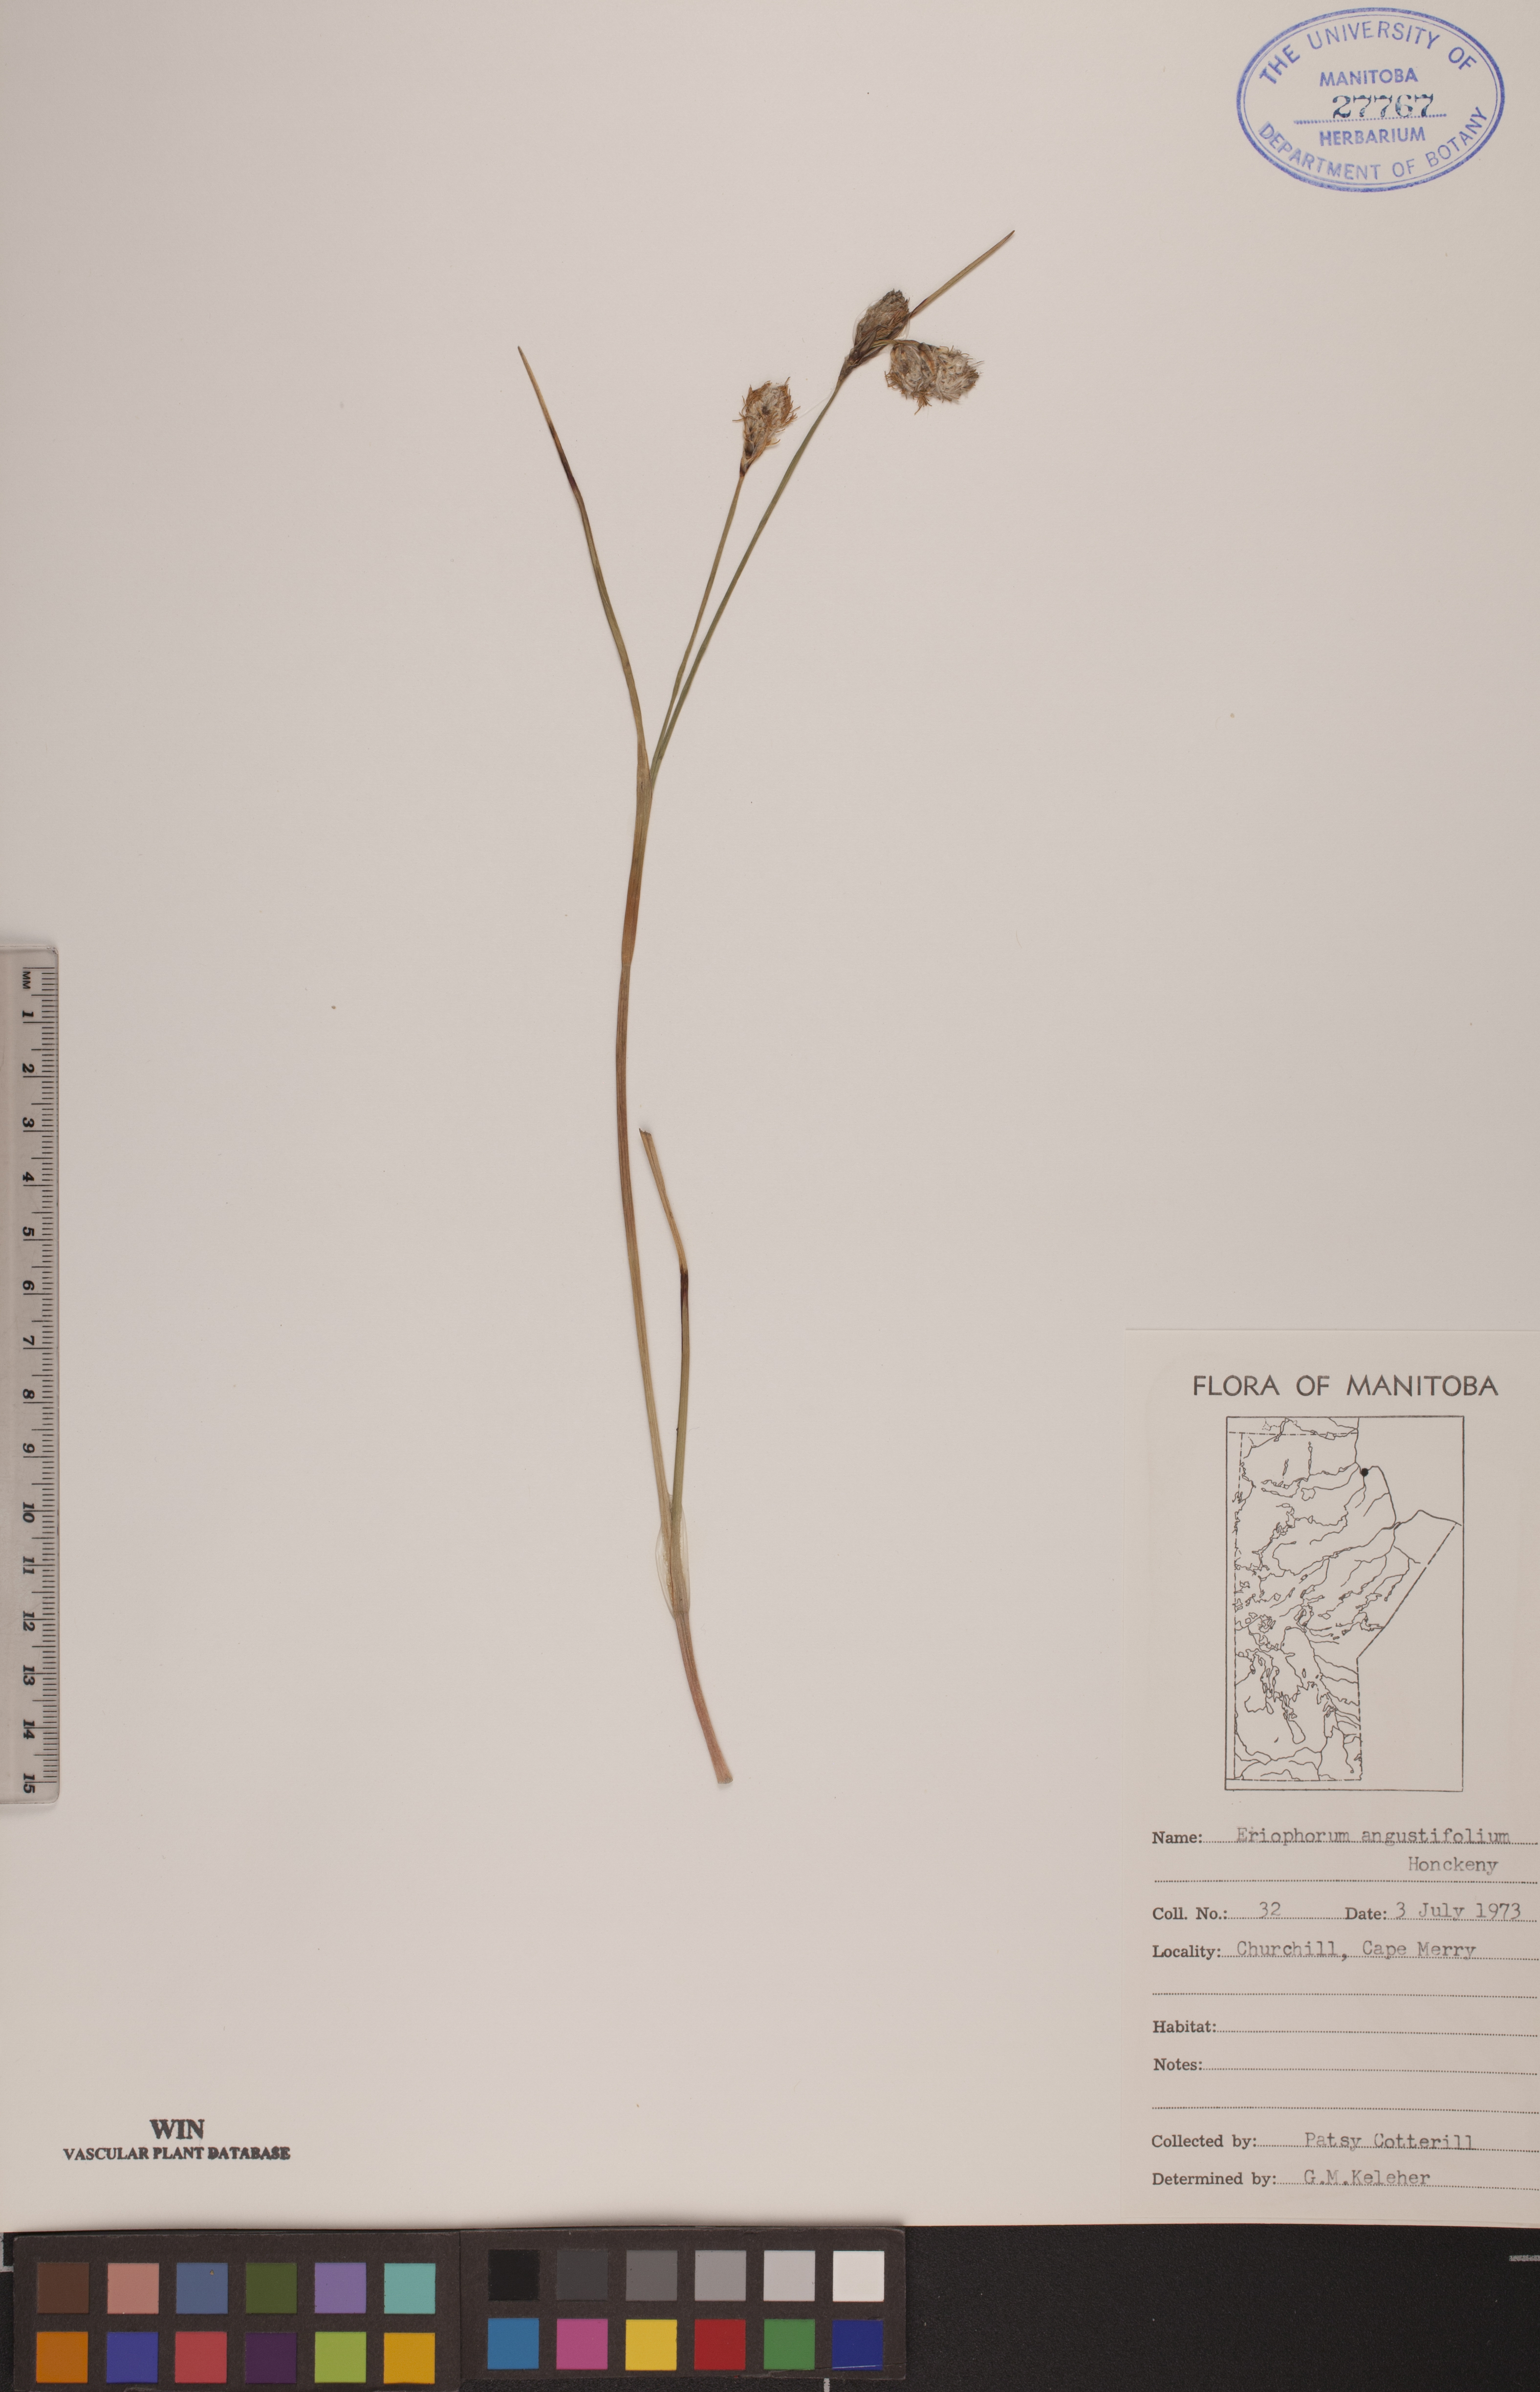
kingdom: Plantae
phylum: Tracheophyta
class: Liliopsida
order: Poales
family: Cyperaceae
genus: Eriophorum
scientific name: Eriophorum angustifolium
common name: Common cottongrass
